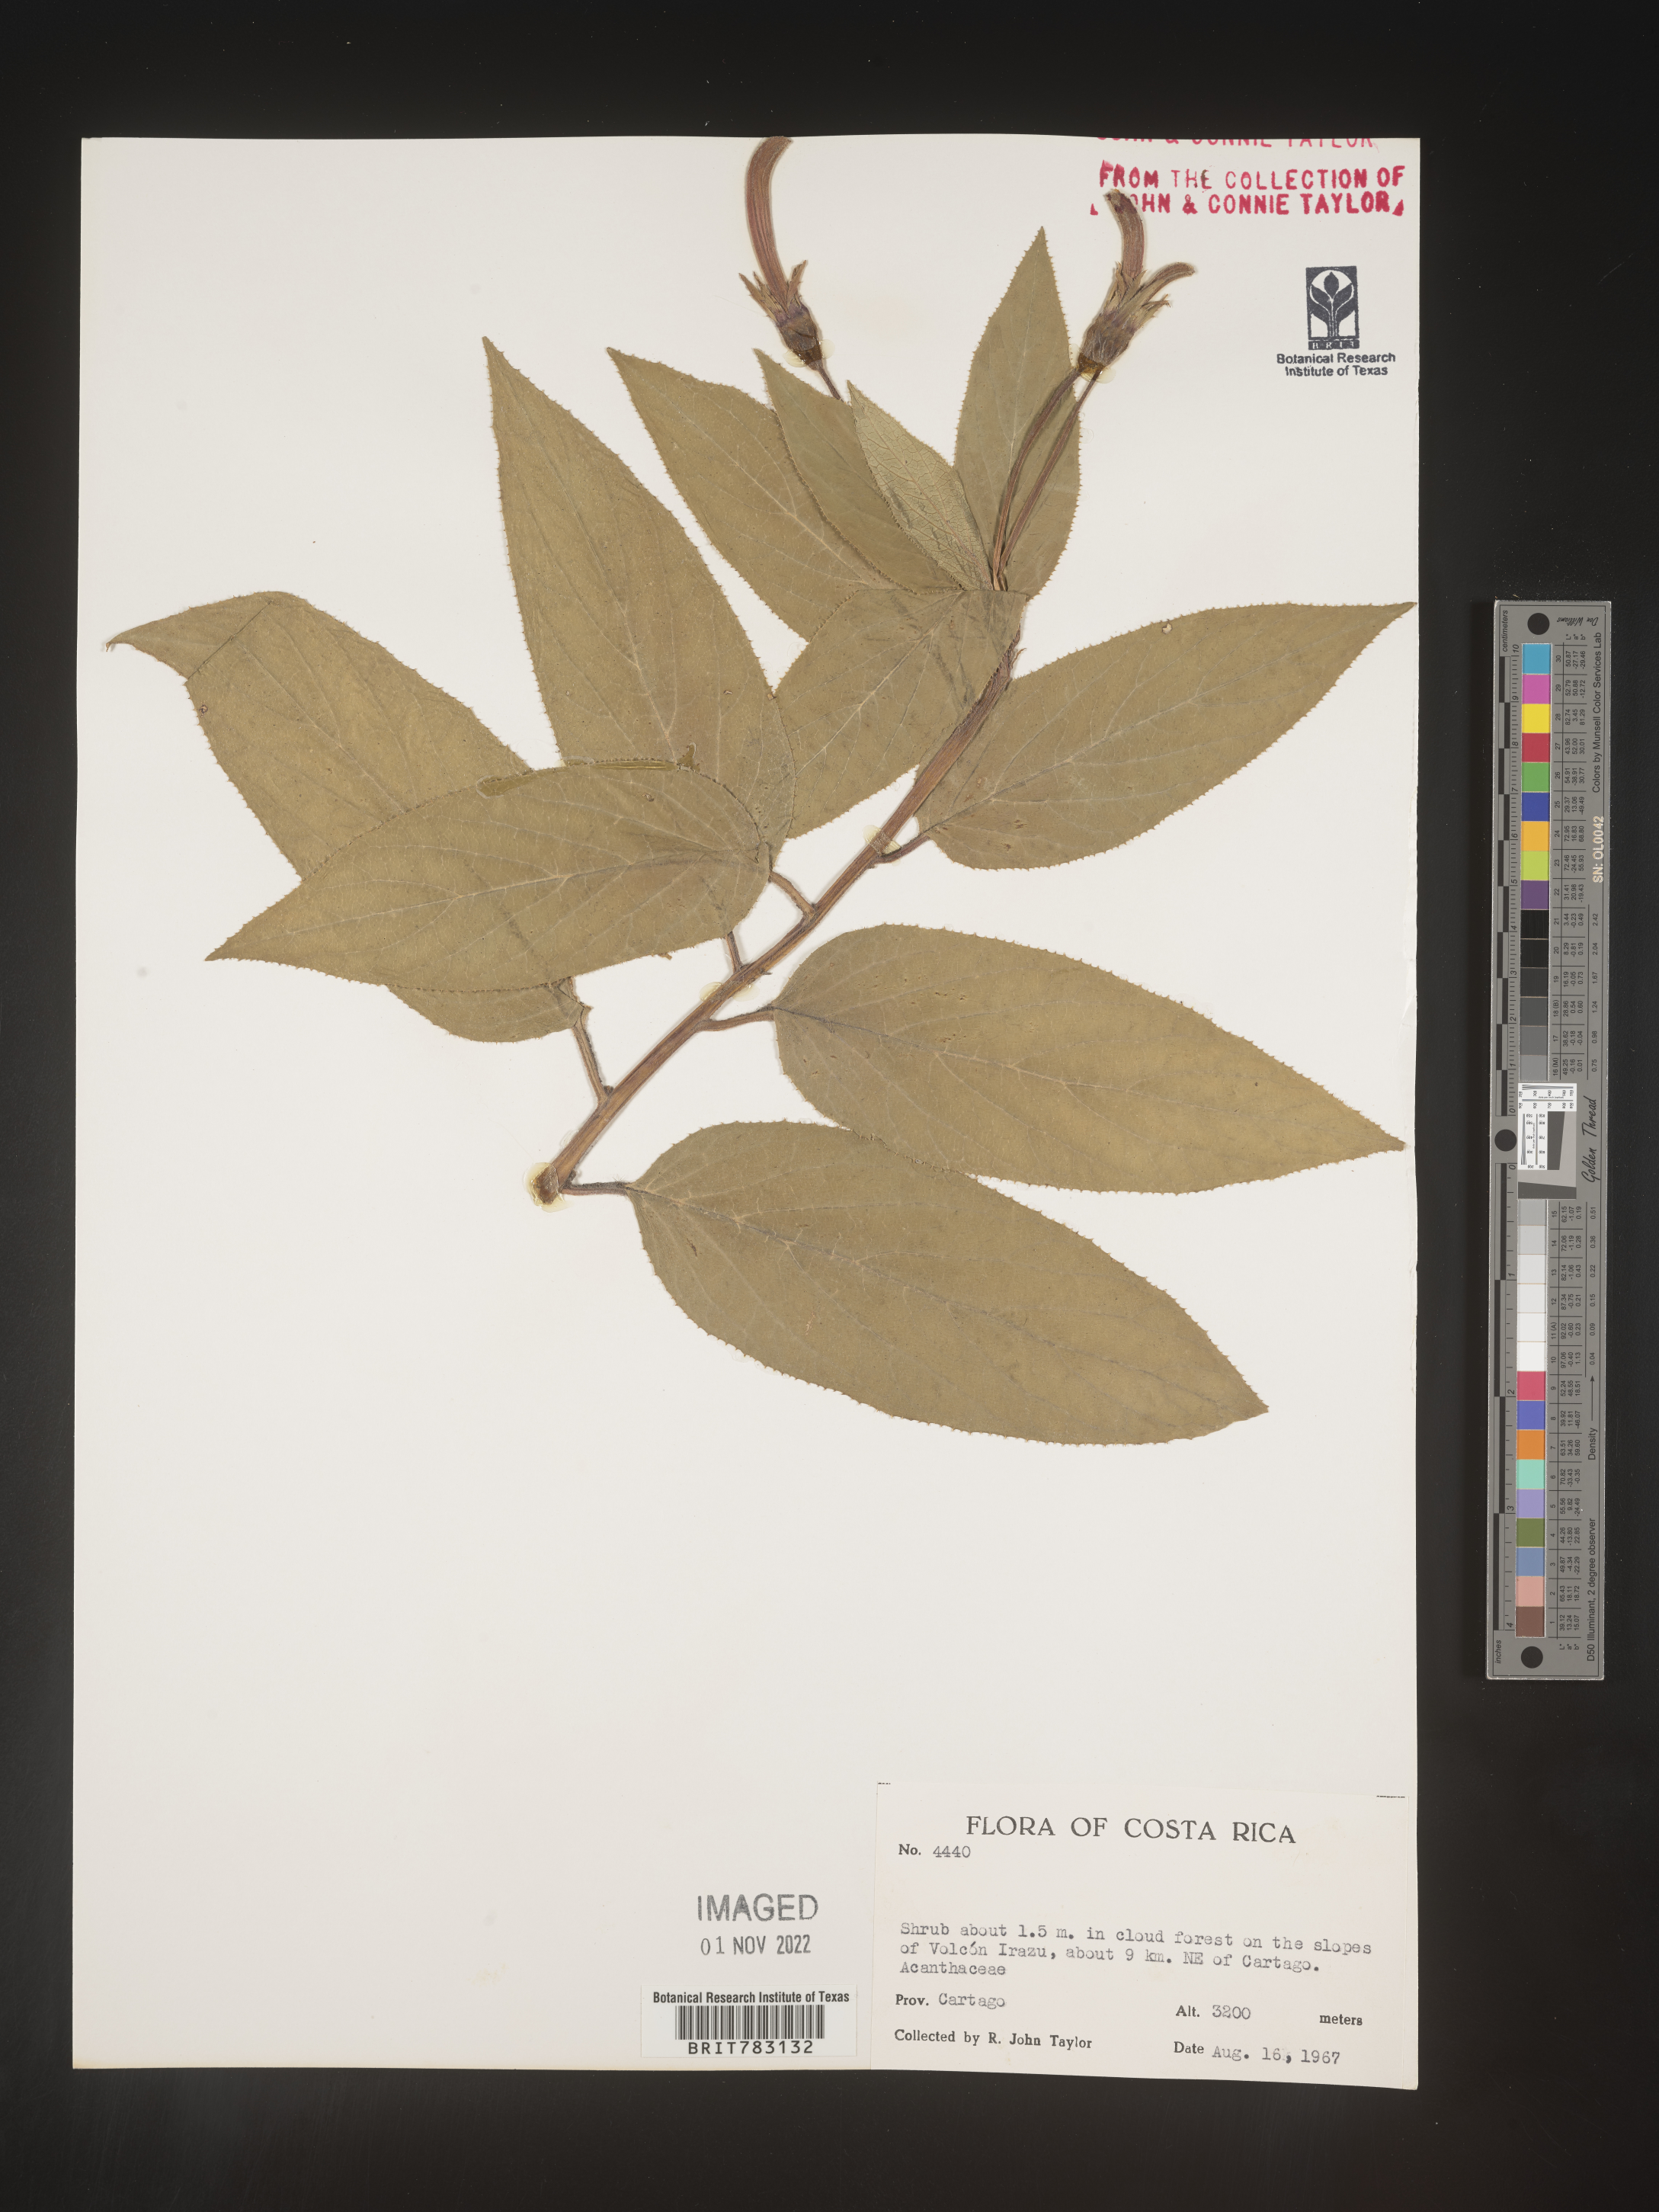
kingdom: Plantae
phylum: Tracheophyta
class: Magnoliopsida
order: Asterales
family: Campanulaceae
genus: Siphocampylus
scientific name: Siphocampylus
